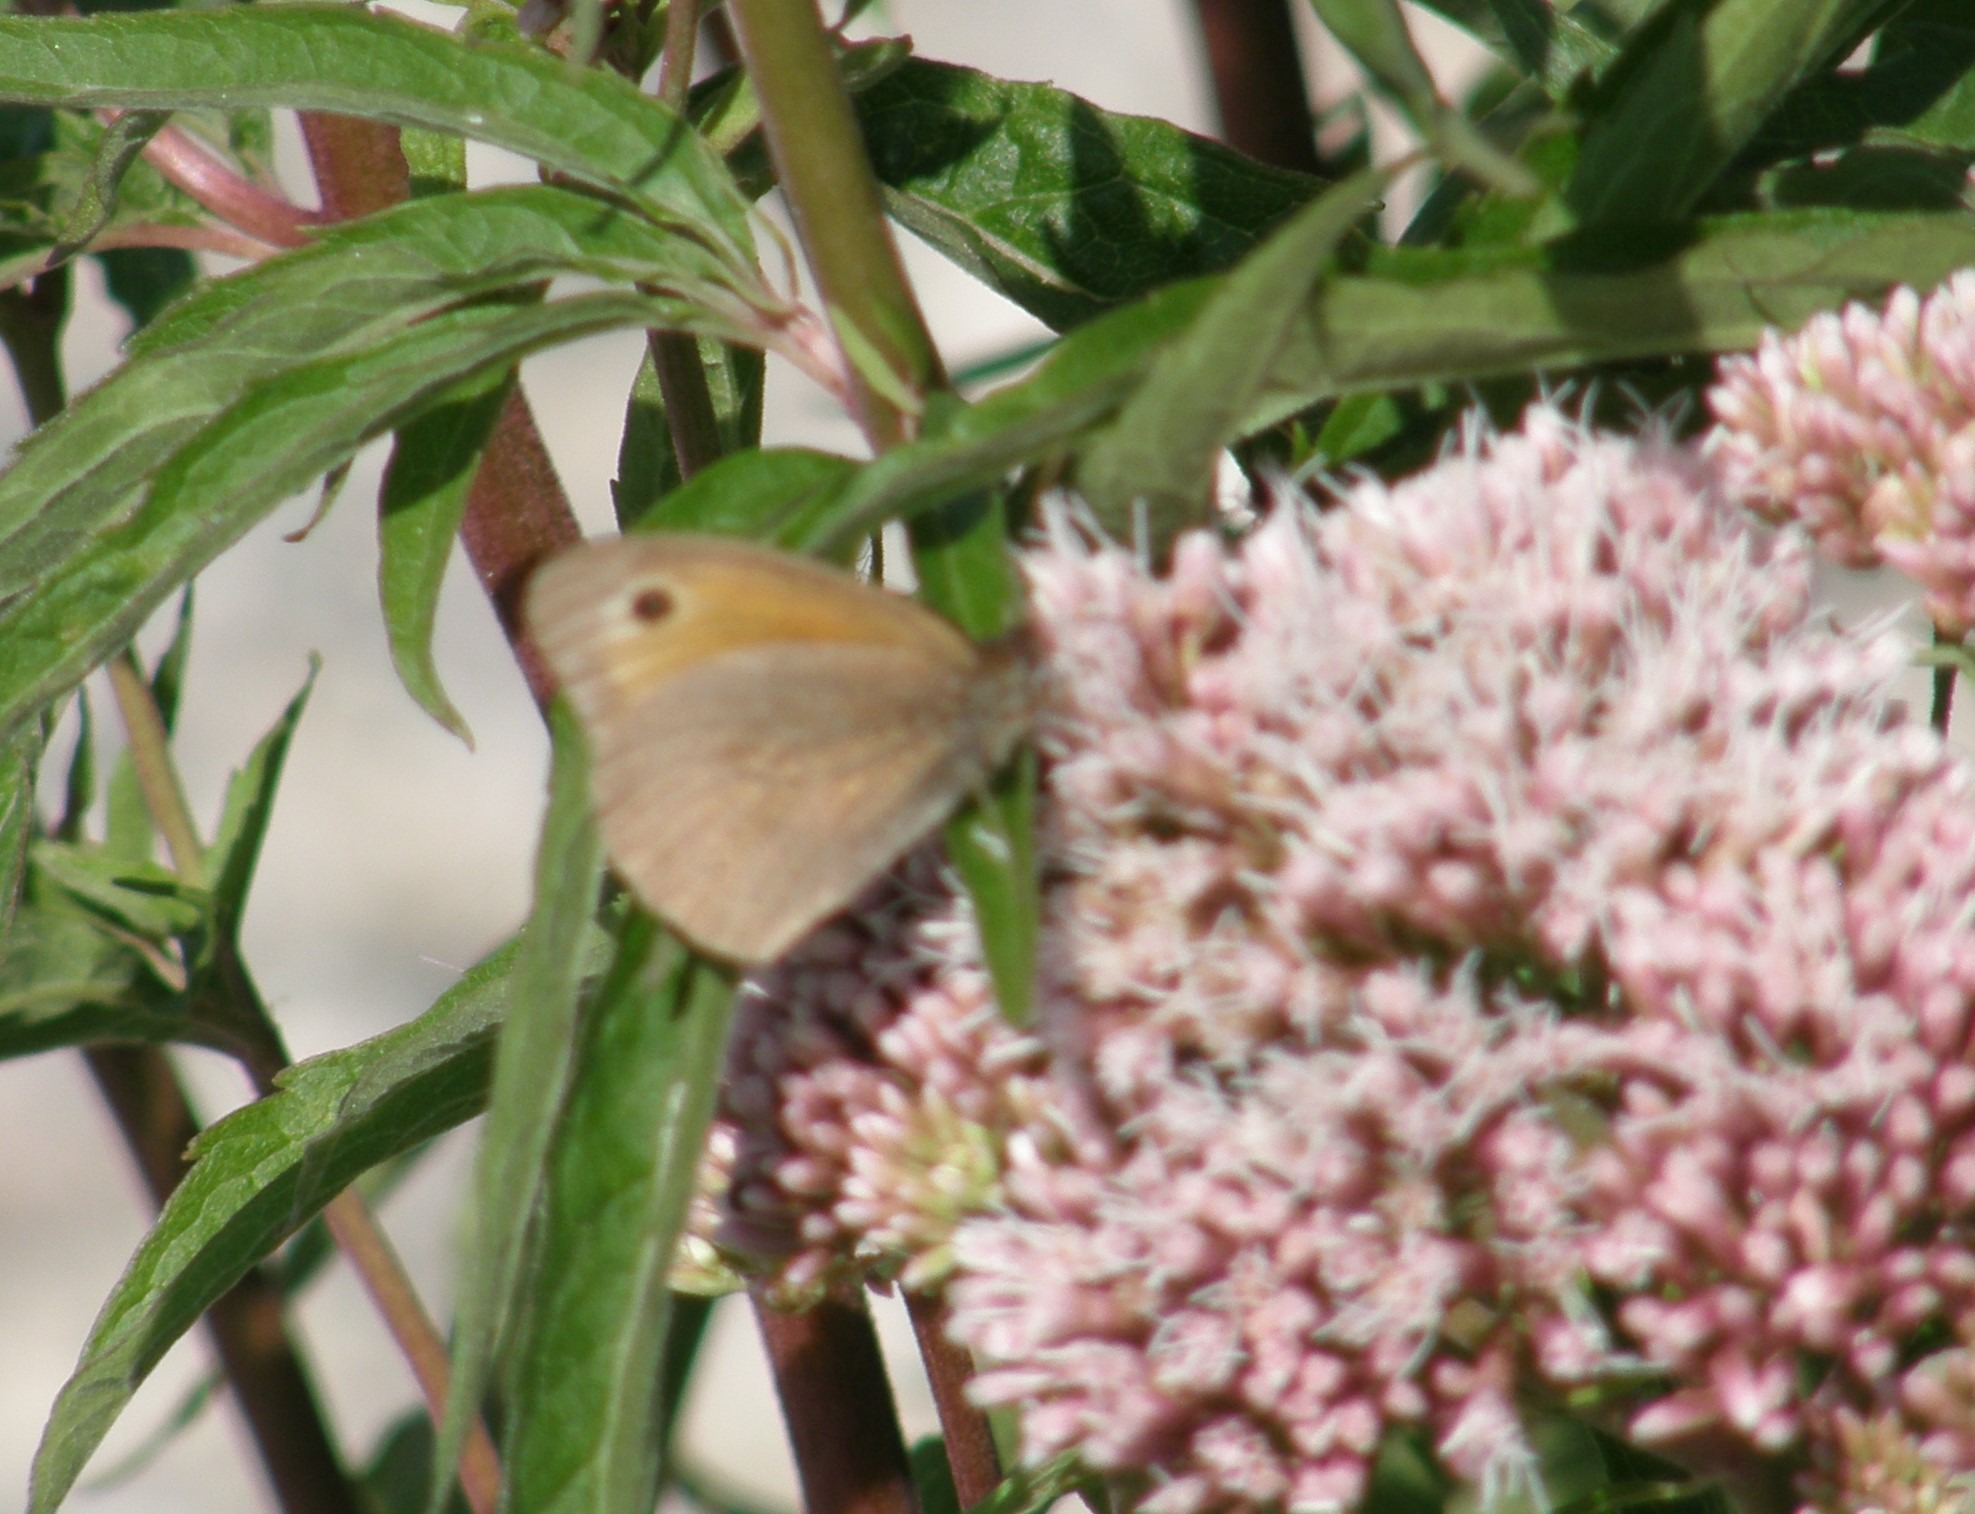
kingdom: Animalia
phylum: Arthropoda
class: Insecta
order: Lepidoptera
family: Nymphalidae
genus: Maniola
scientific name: Maniola jurtina
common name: Græsrandøje
